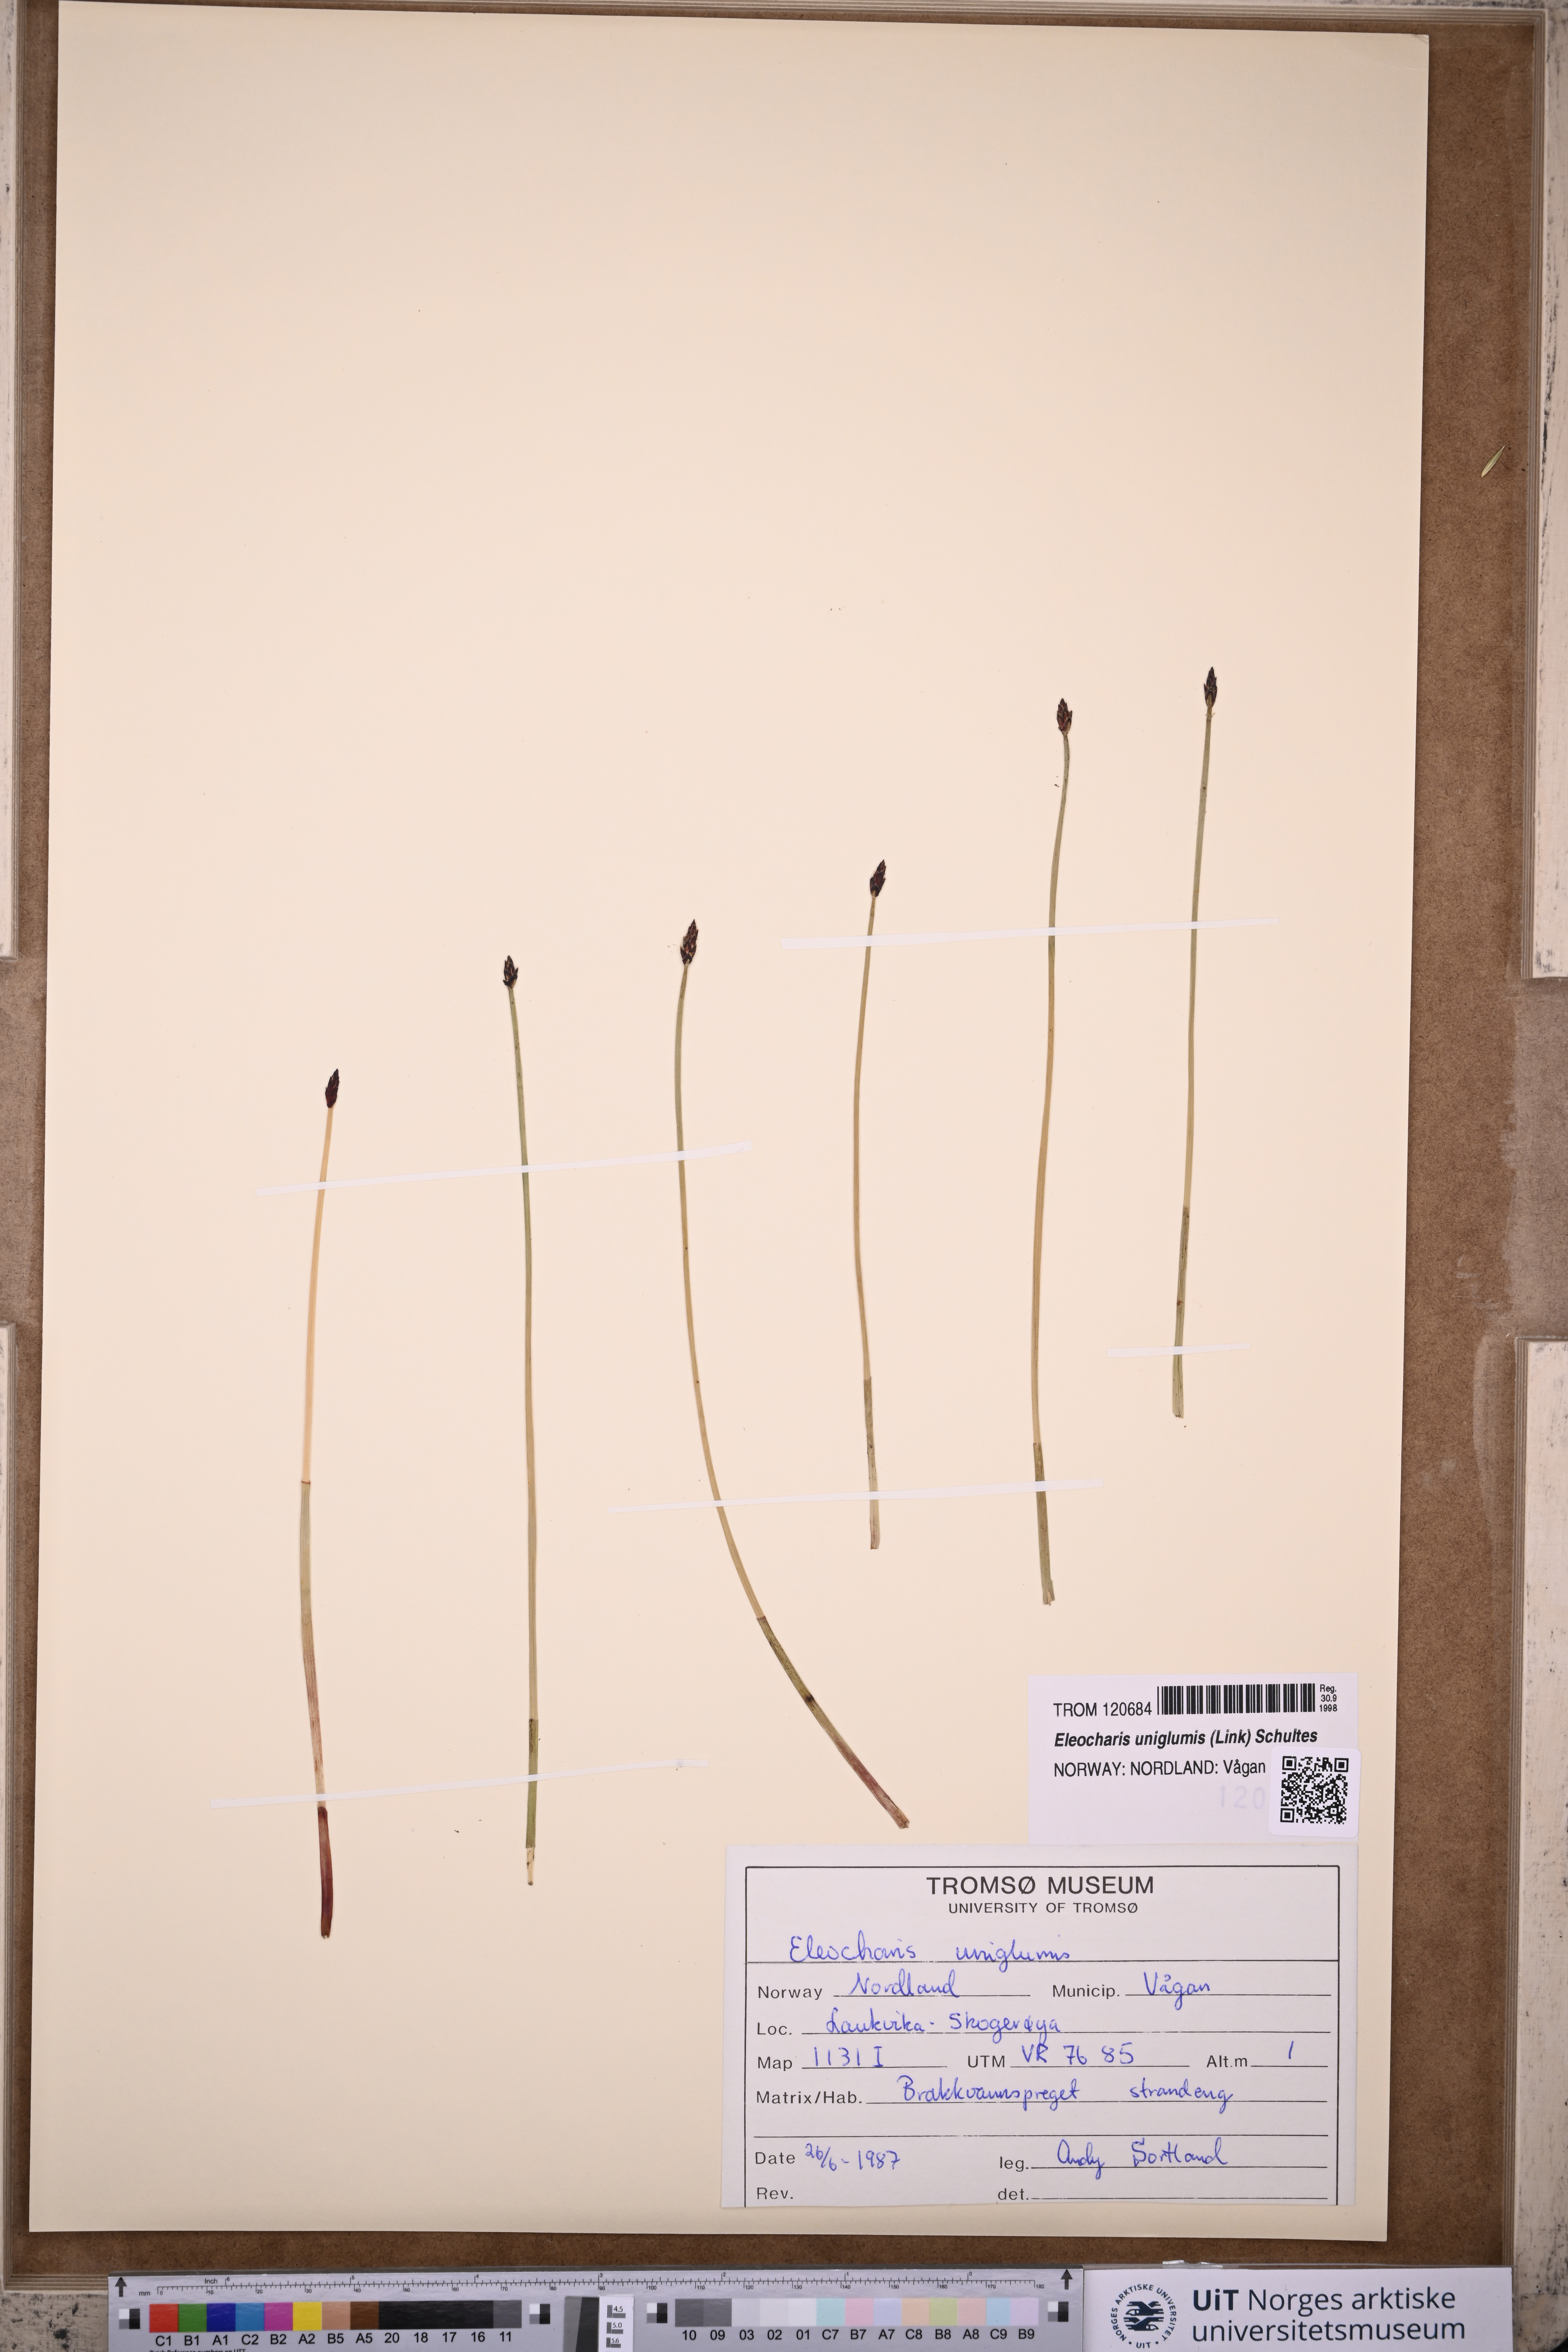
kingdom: Plantae
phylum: Tracheophyta
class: Liliopsida
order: Poales
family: Cyperaceae
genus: Eleocharis
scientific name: Eleocharis uniglumis
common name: Slender spike-rush
